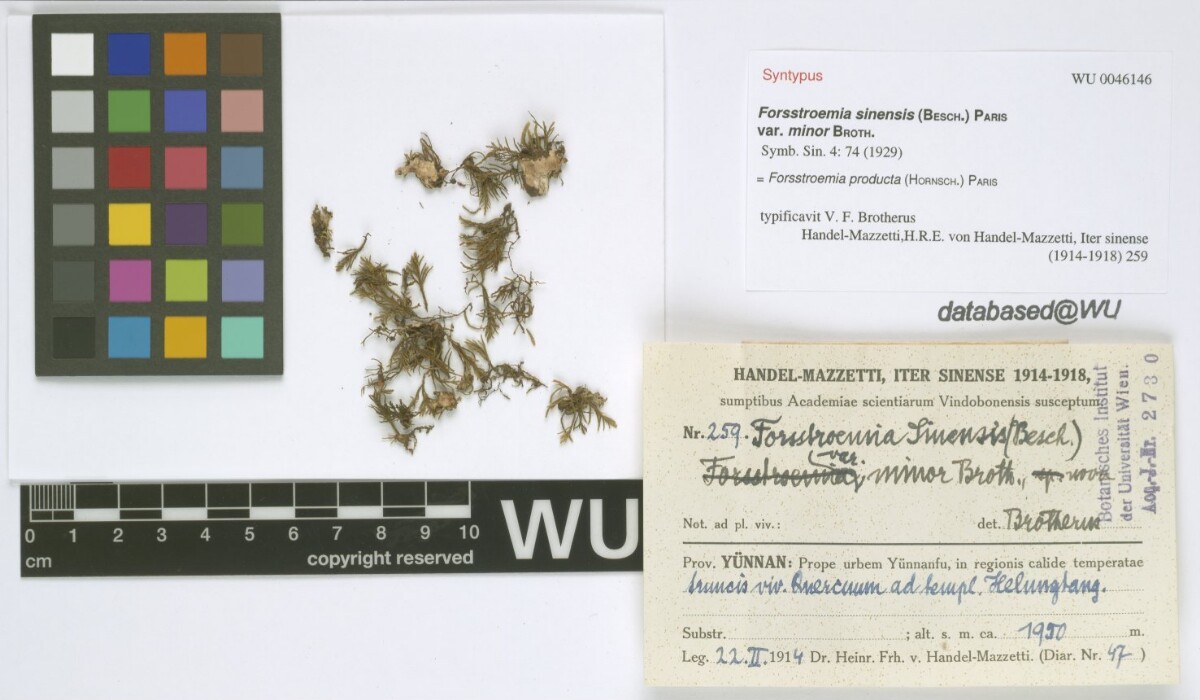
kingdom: Plantae
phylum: Bryophyta
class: Bryopsida
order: Hypnales
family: Neckeraceae
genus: Forsstroemia
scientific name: Forsstroemia producta
